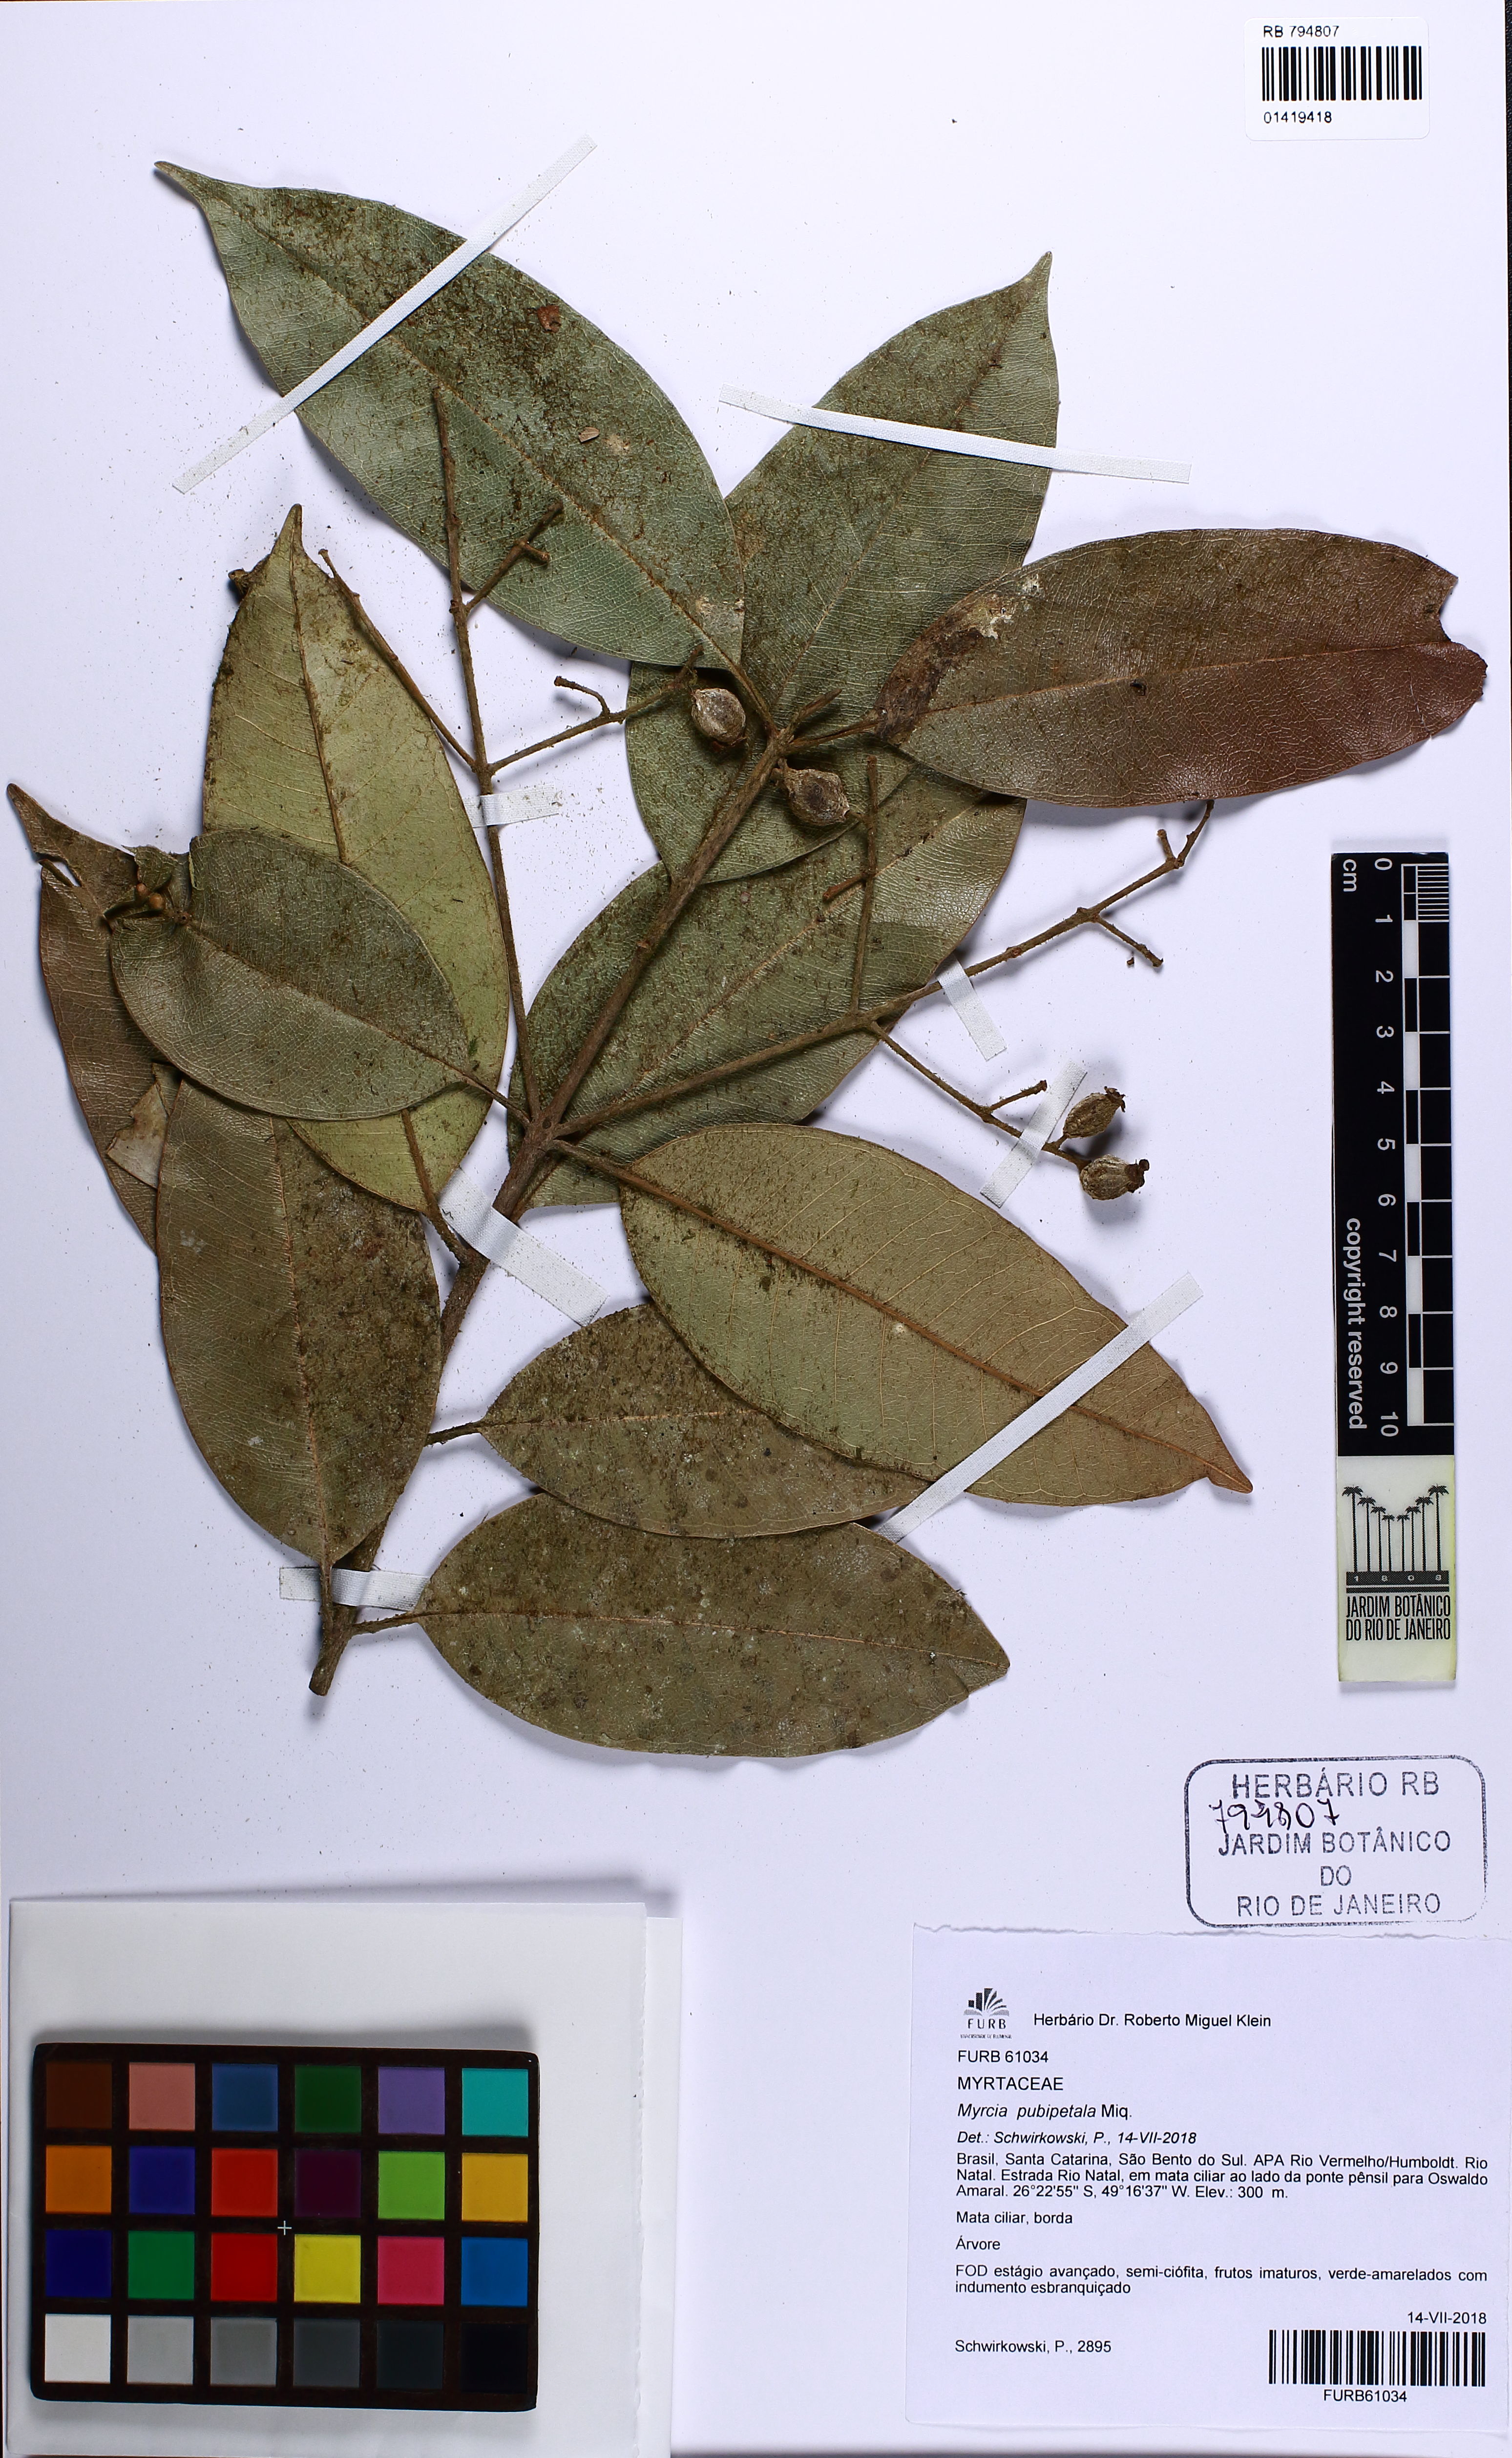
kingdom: Plantae
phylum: Tracheophyta
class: Magnoliopsida
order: Myrtales
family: Myrtaceae
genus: Myrcia
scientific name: Myrcia pubipetala
